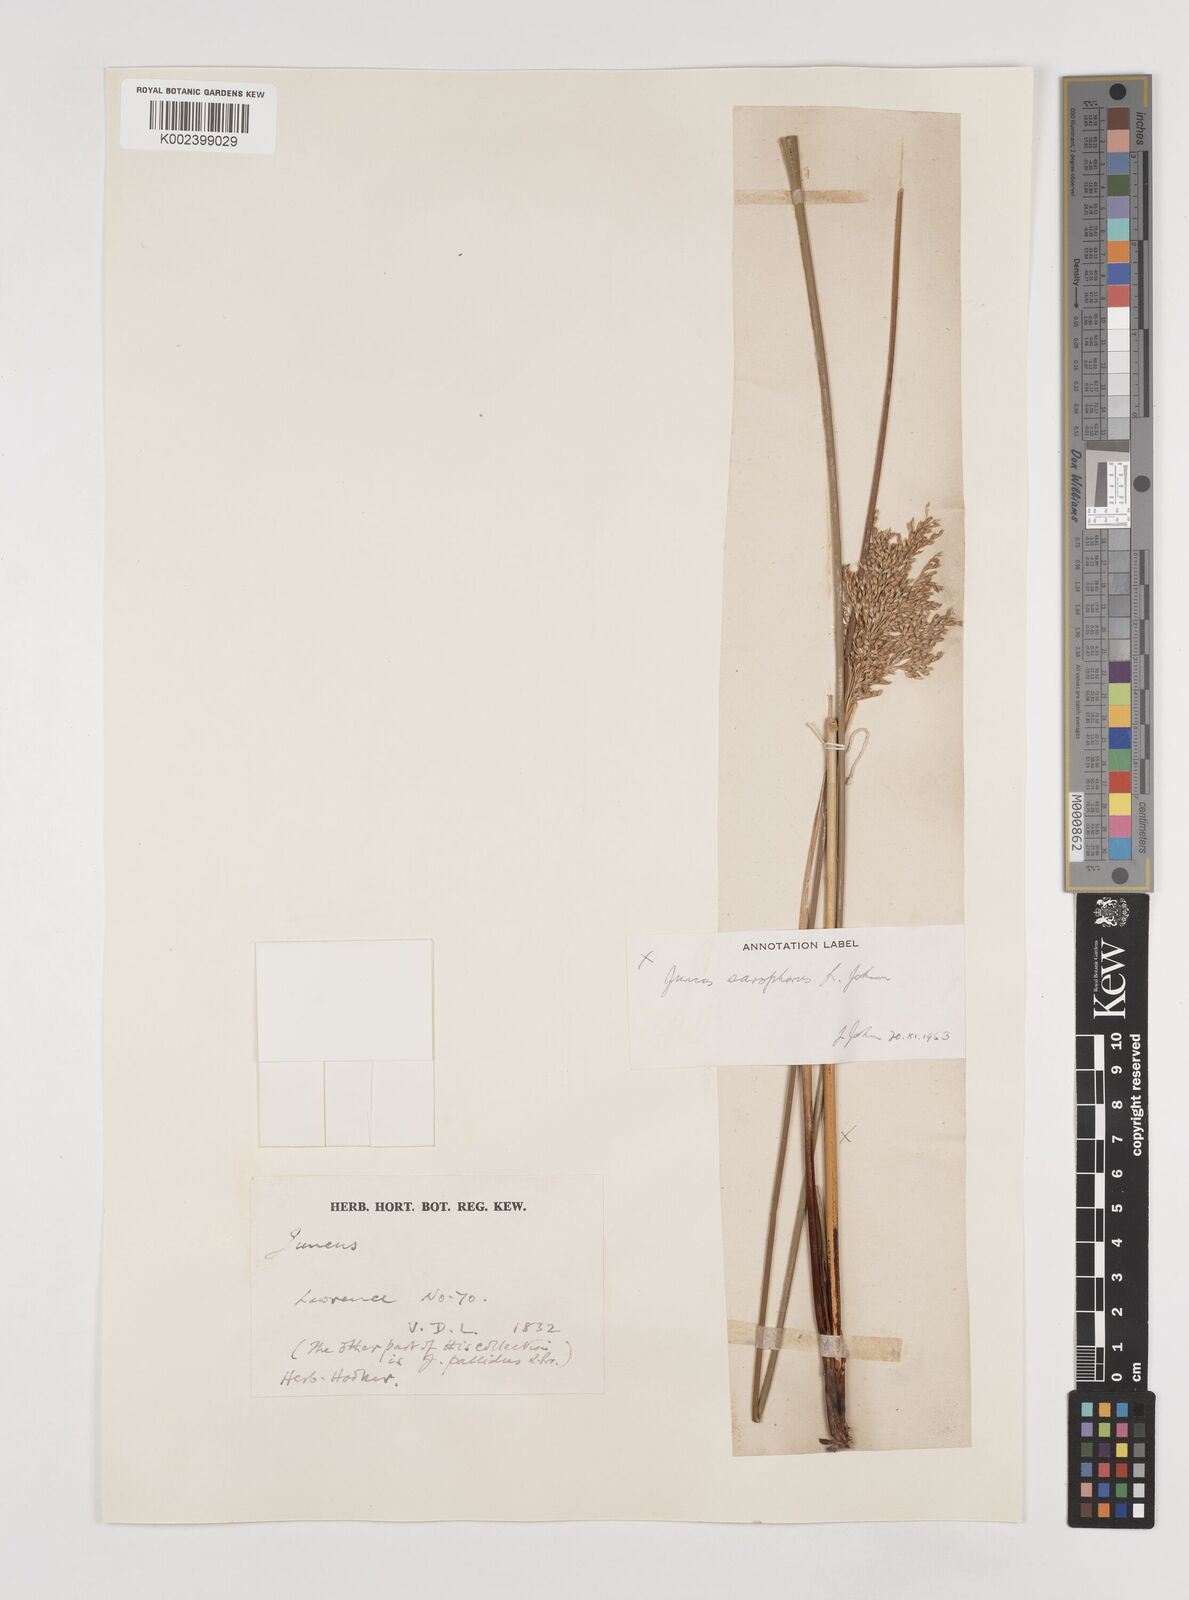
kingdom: Plantae
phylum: Tracheophyta
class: Liliopsida
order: Poales
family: Juncaceae
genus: Juncus
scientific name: Juncus sarophorus
